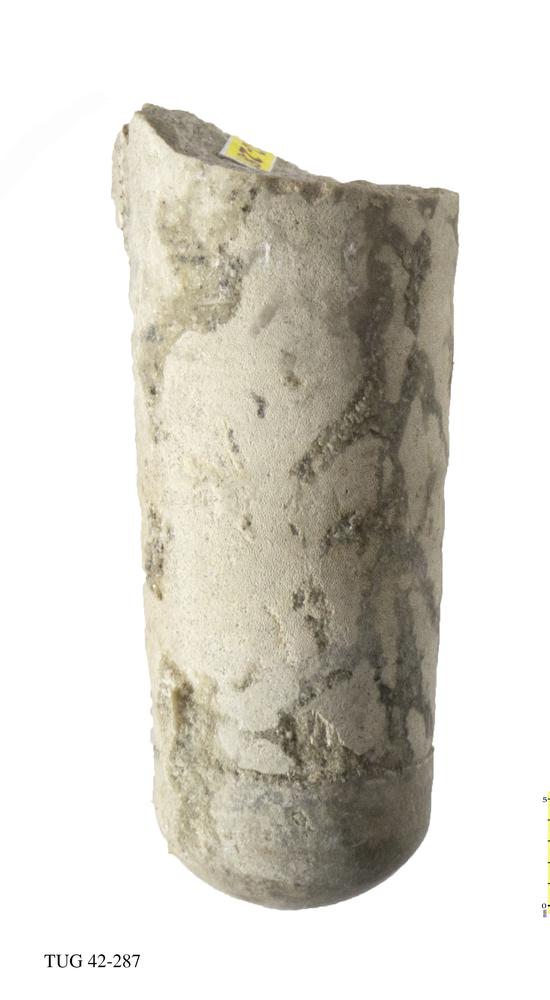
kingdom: Animalia
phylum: Mollusca
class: Cephalopoda
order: Orthocerida
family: Orthoceratidae
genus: Orthoceras
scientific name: Orthoceras
